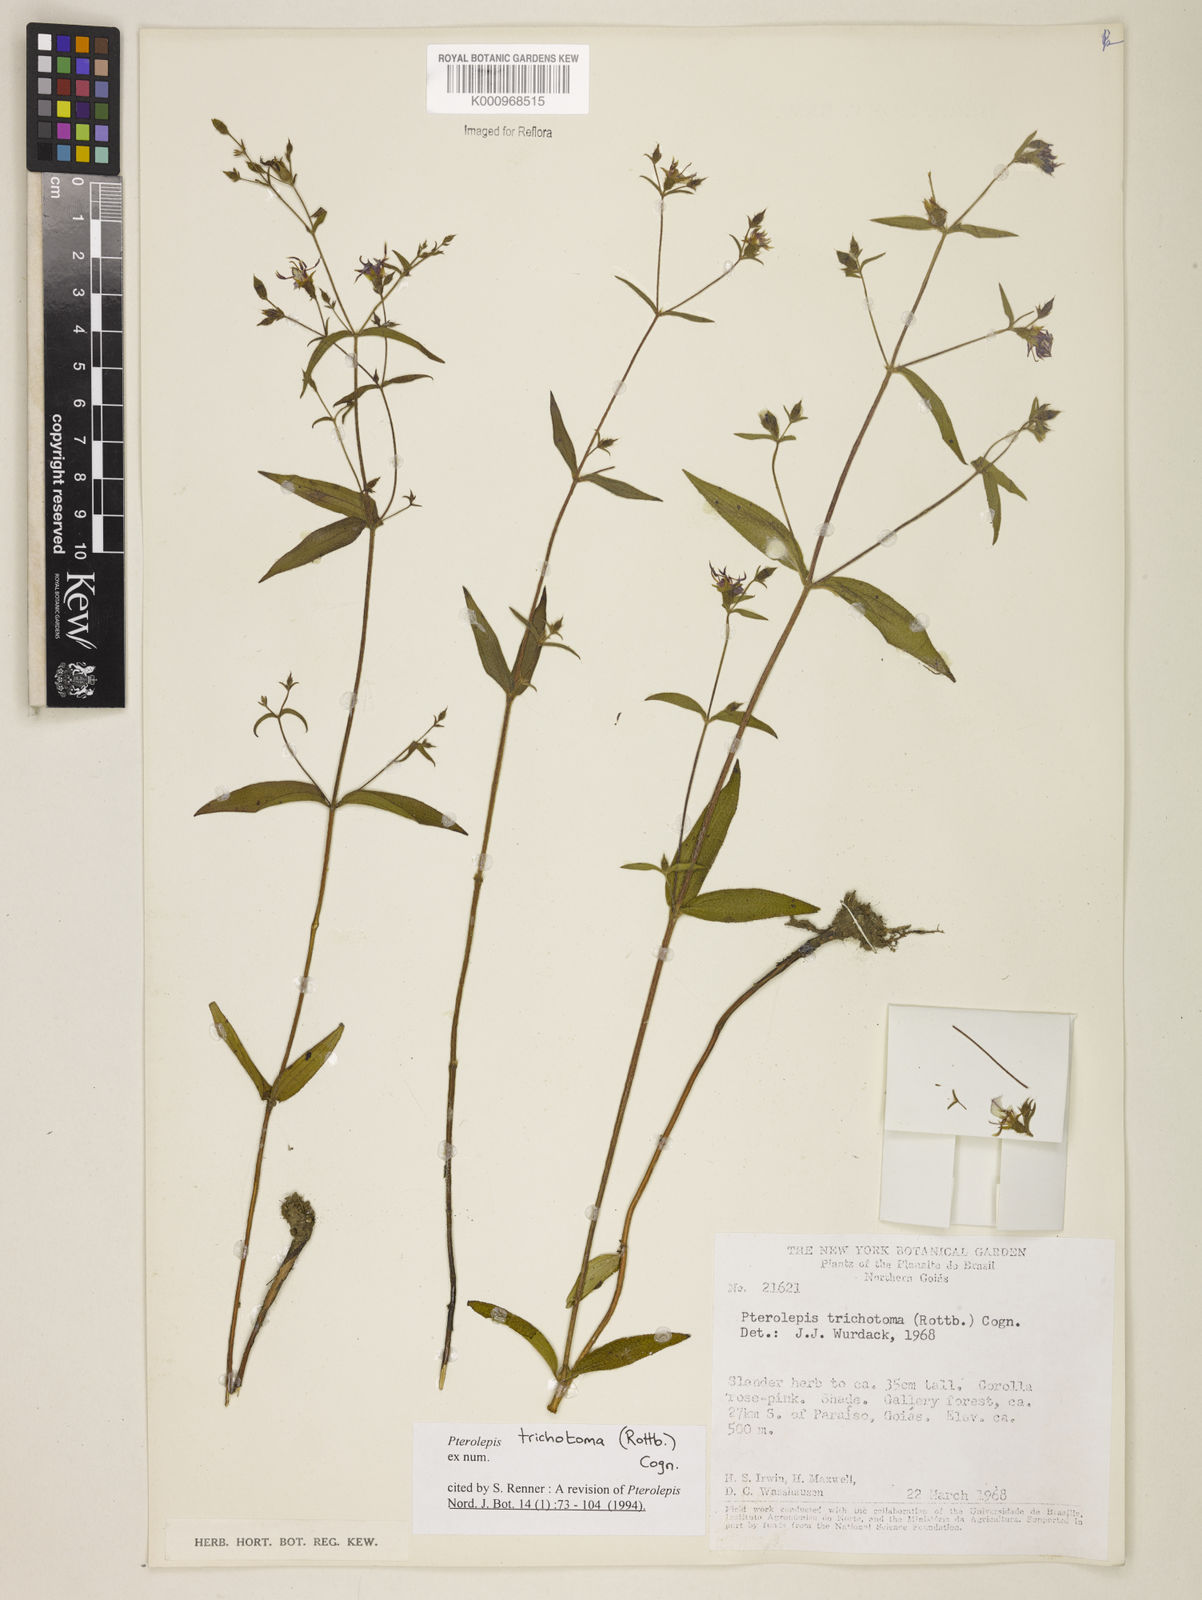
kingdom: Plantae
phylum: Tracheophyta
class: Magnoliopsida
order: Myrtales
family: Melastomataceae
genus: Pterolepis
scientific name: Pterolepis trichotoma
